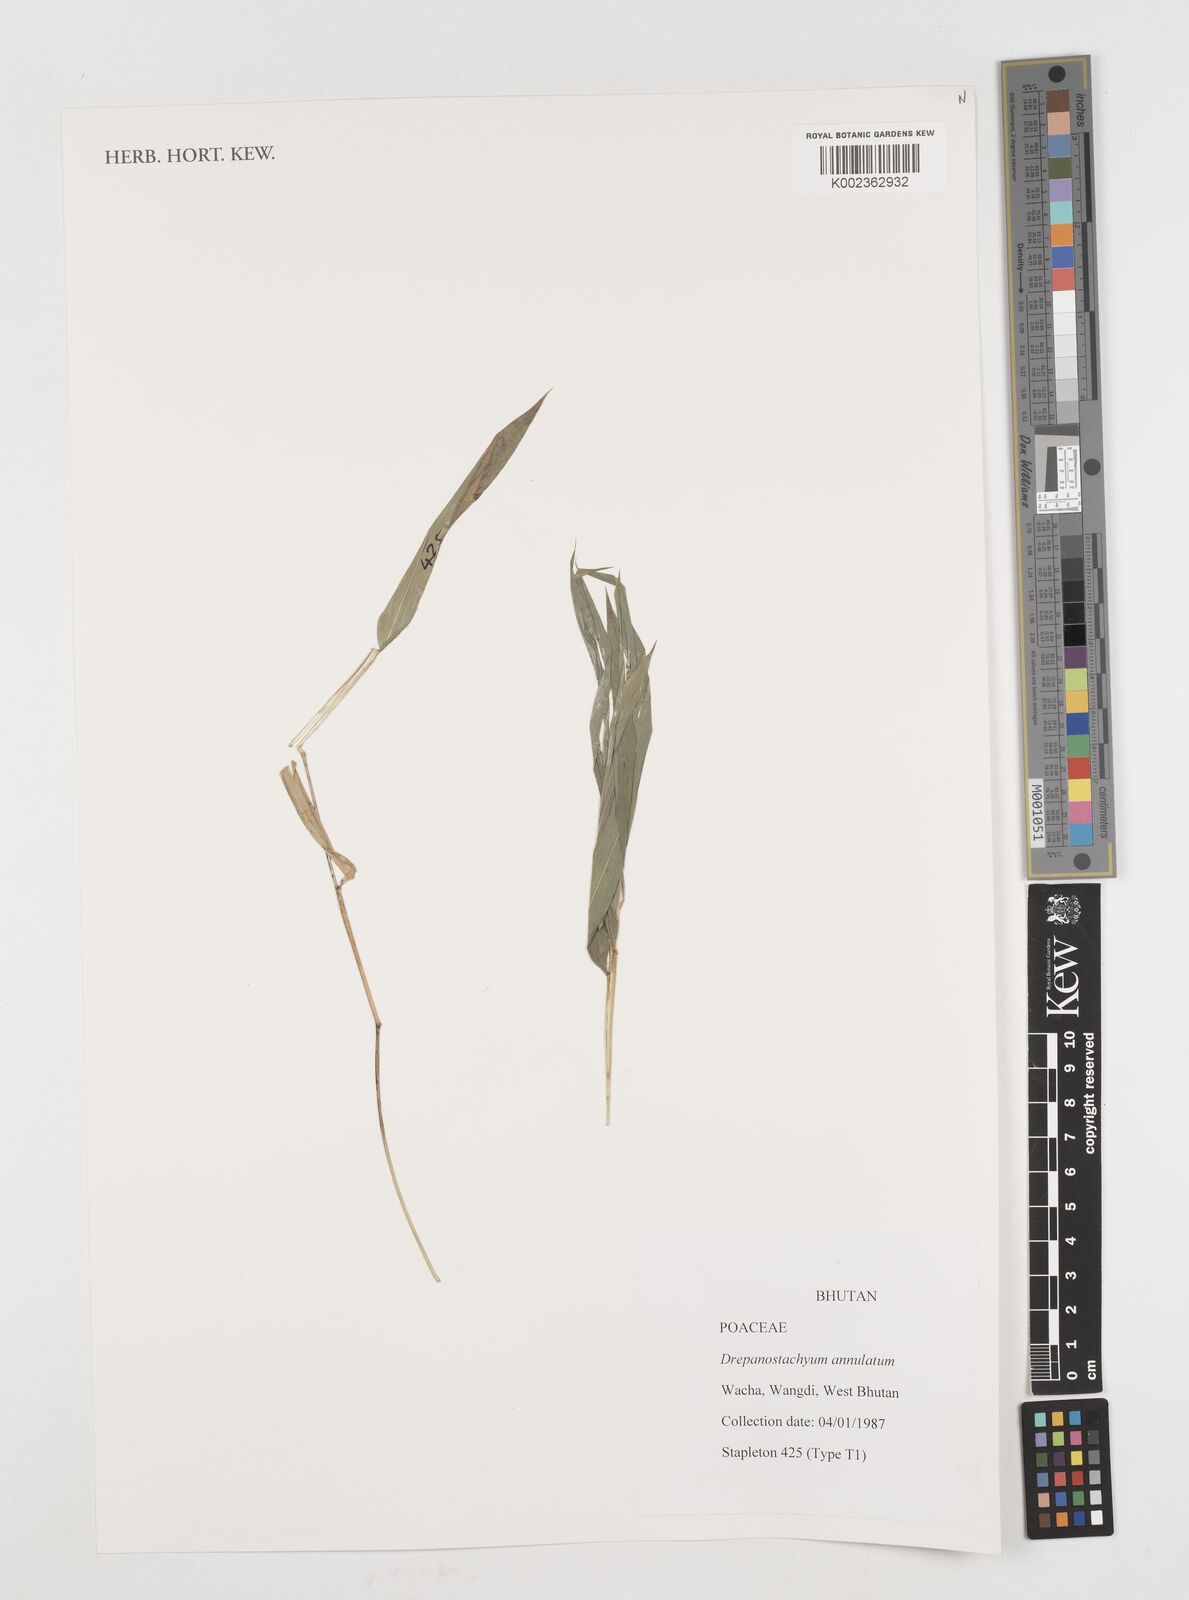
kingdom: Plantae
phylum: Tracheophyta
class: Liliopsida
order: Poales
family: Poaceae
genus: Drepanostachyum
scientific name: Drepanostachyum annulatum
